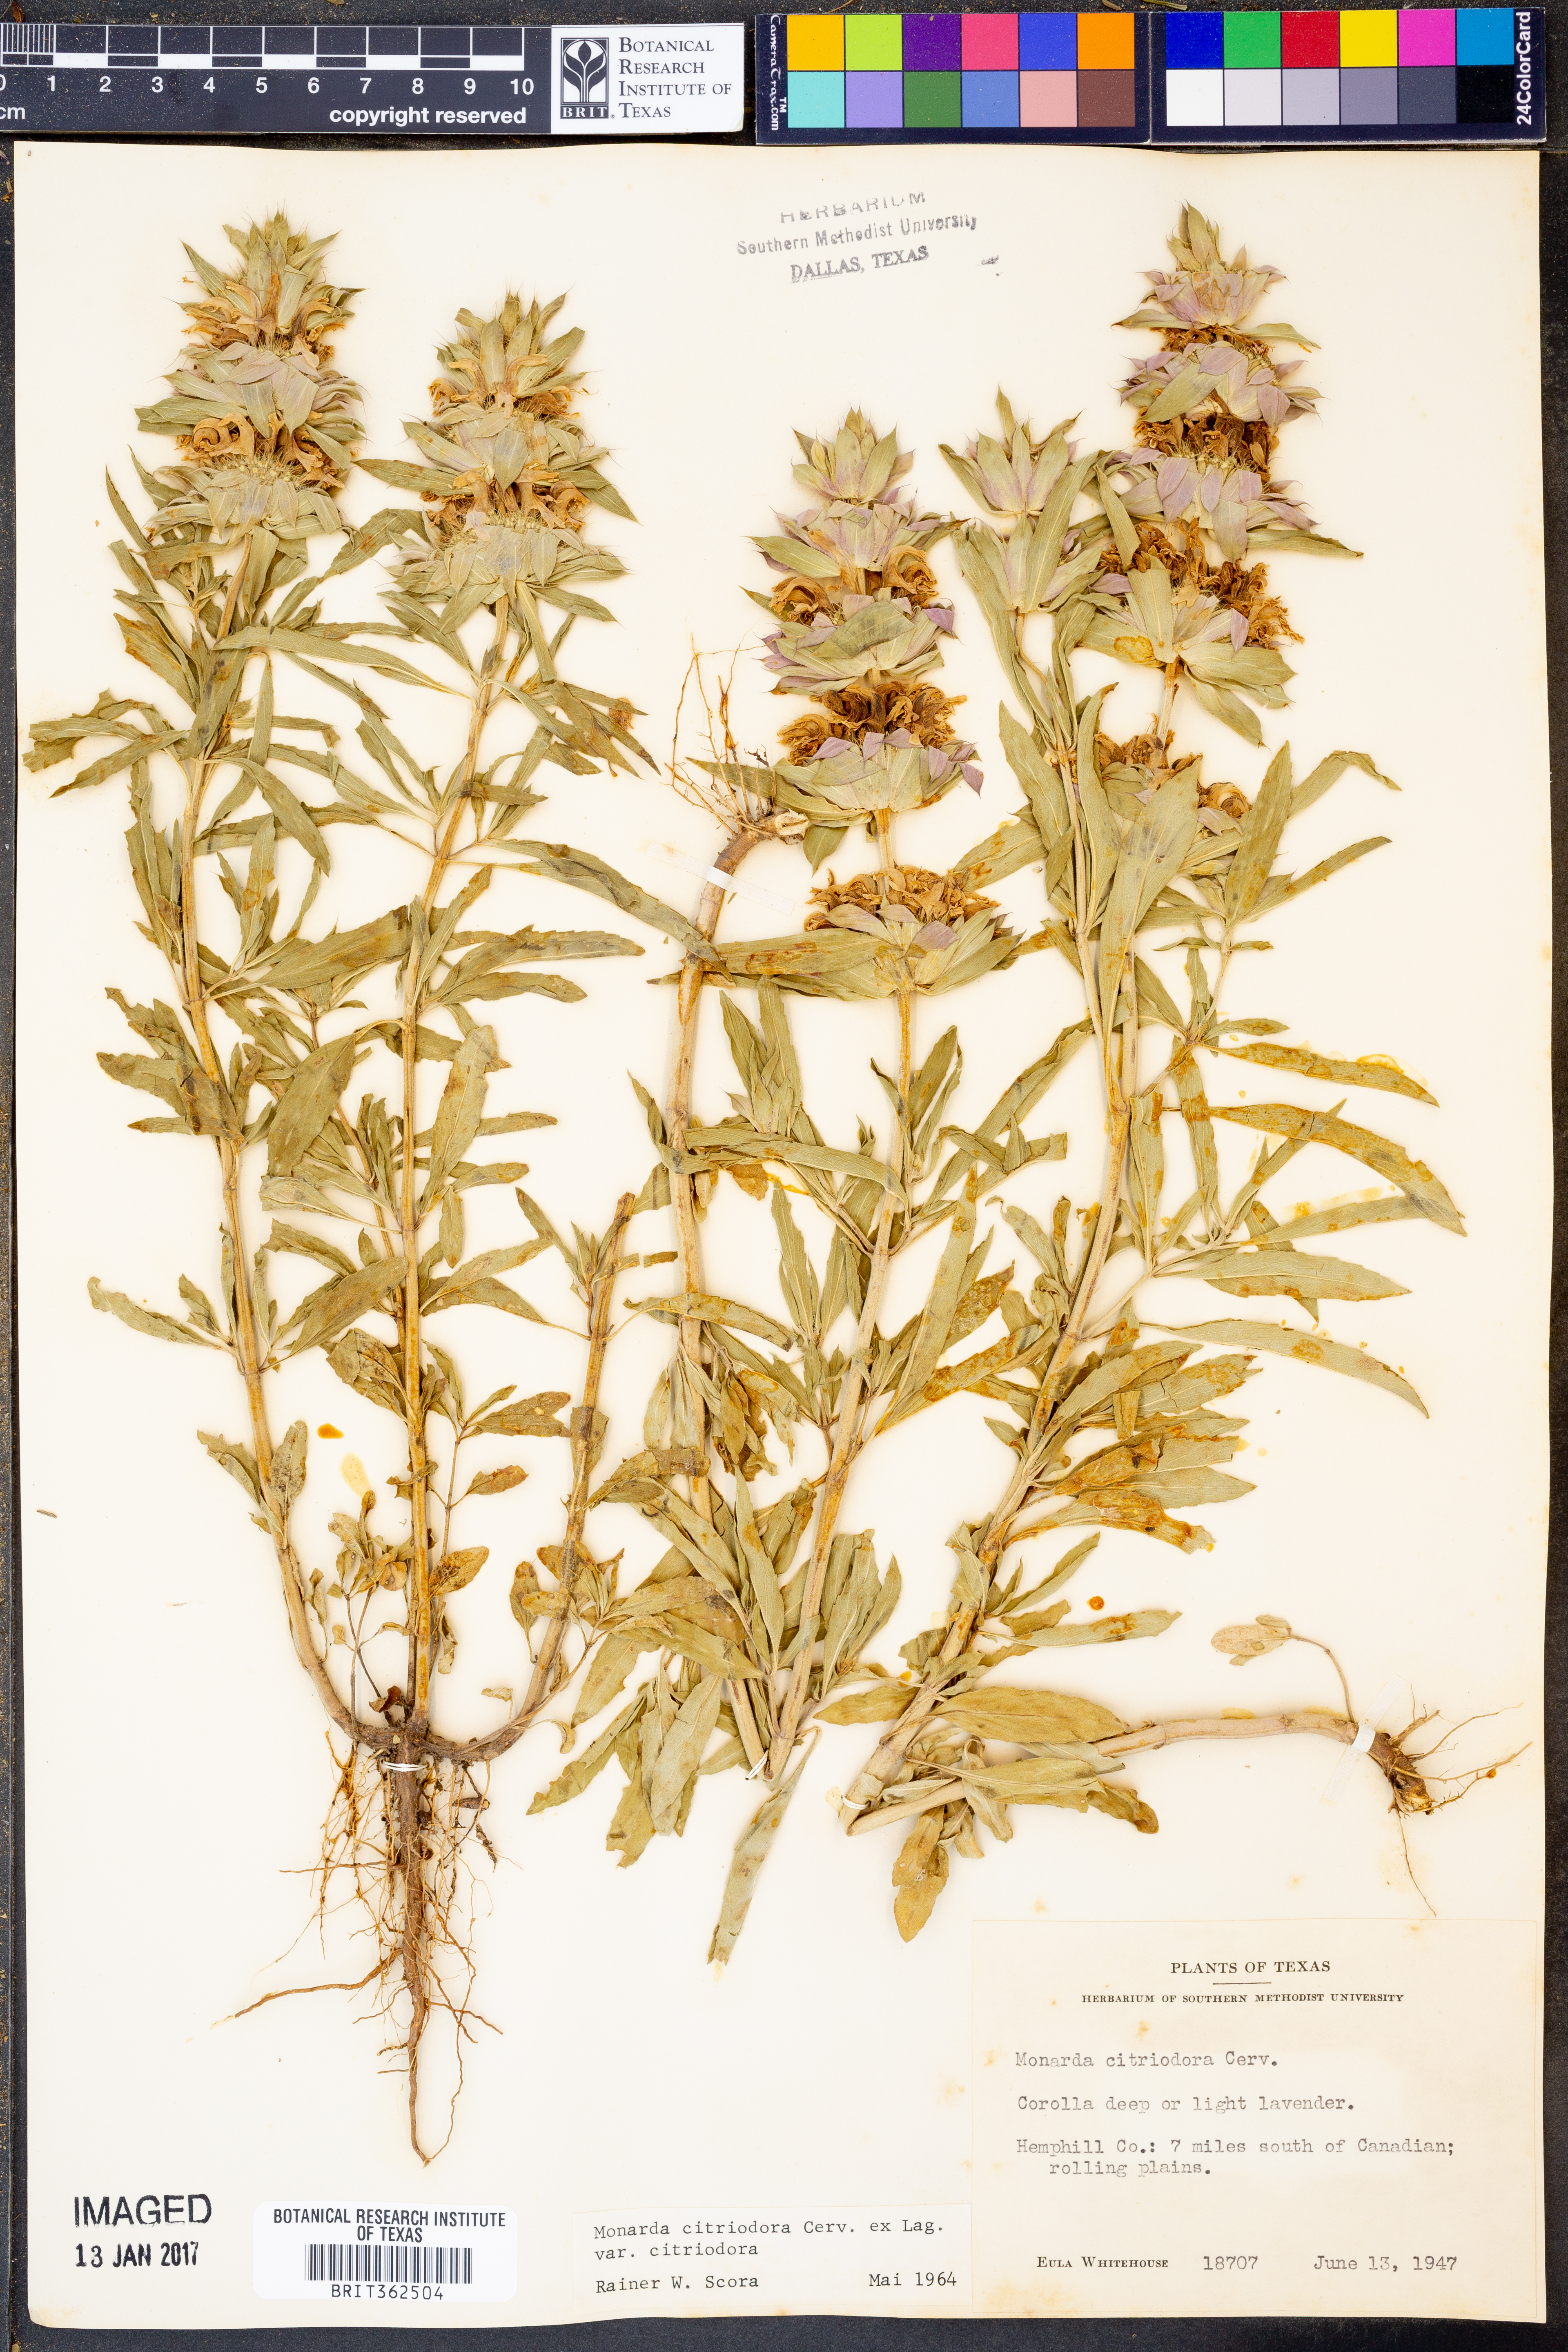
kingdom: Plantae
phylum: Tracheophyta
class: Magnoliopsida
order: Lamiales
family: Lamiaceae
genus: Monarda
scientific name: Monarda citriodora
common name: Lemon beebalm
